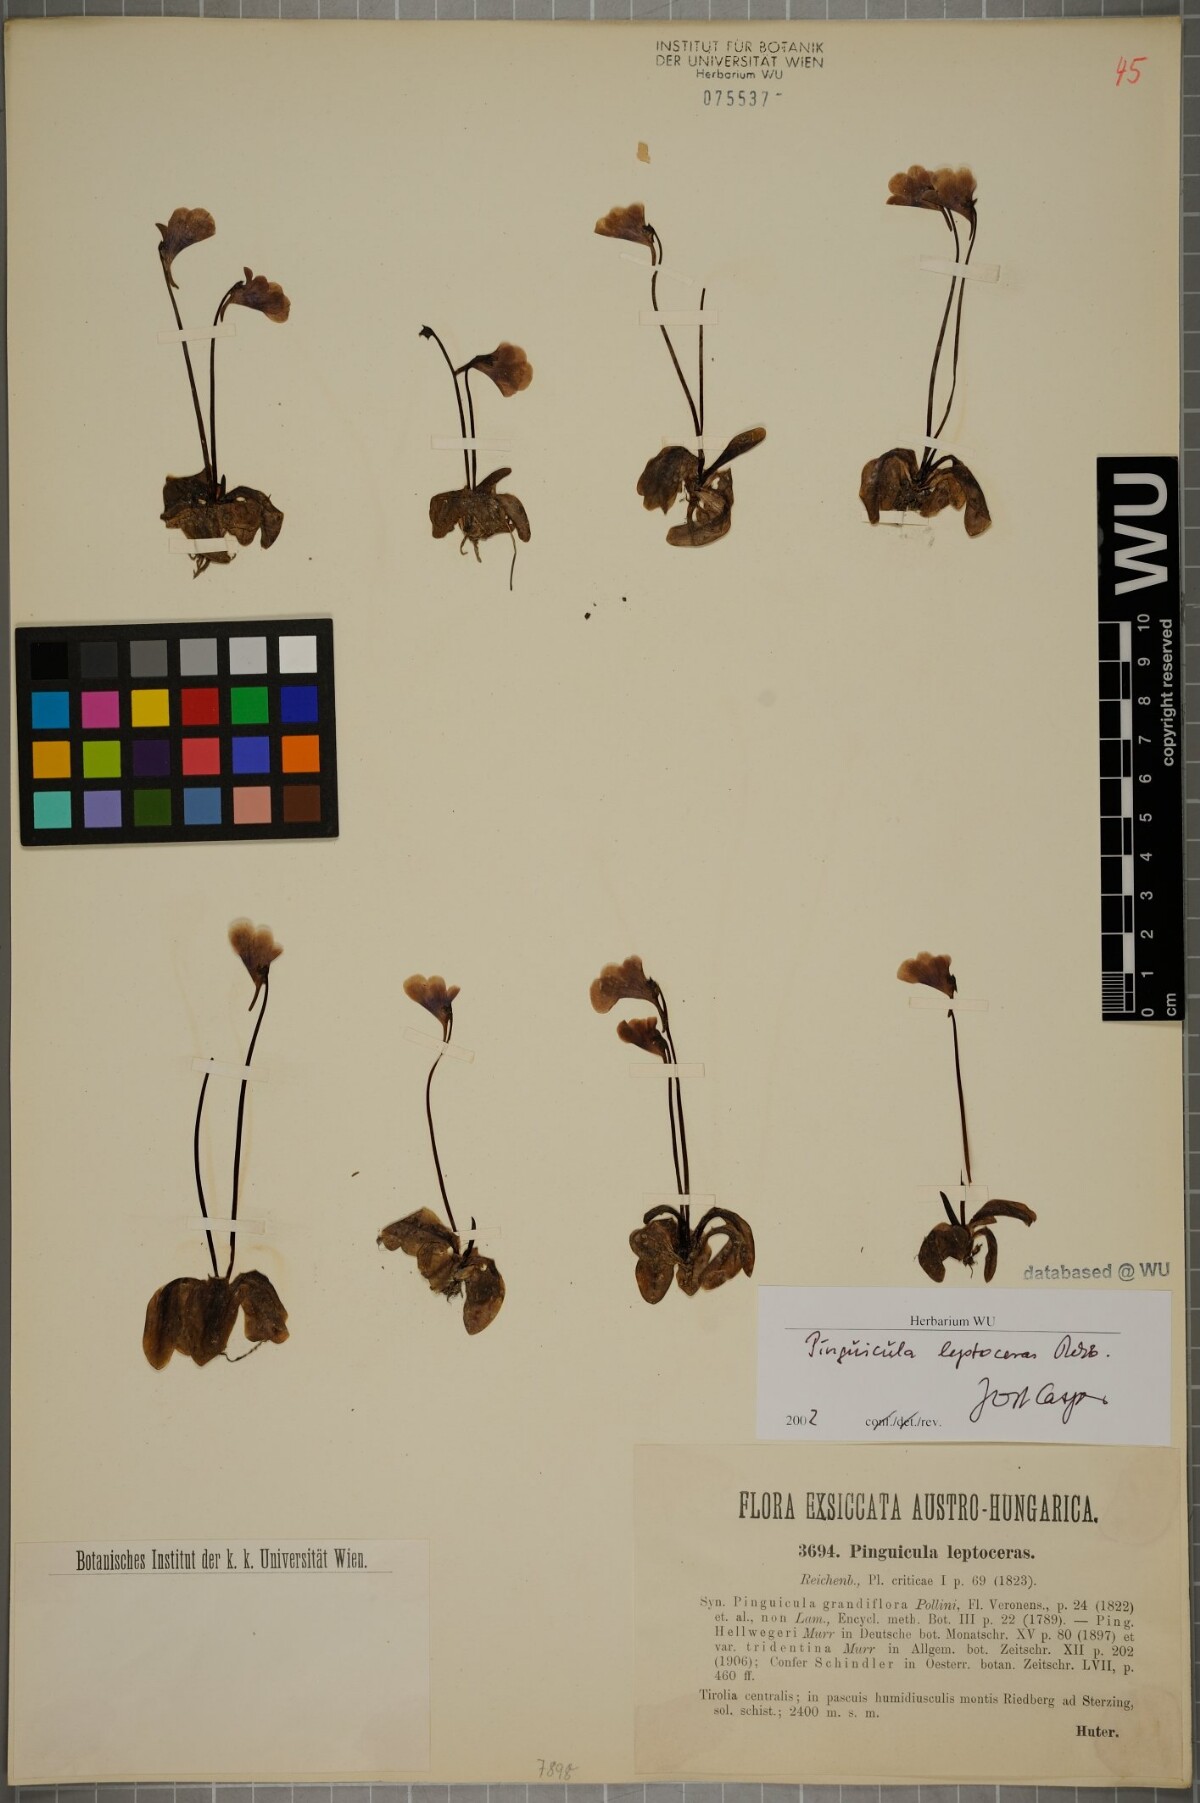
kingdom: Plantae
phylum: Tracheophyta
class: Magnoliopsida
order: Lamiales
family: Lentibulariaceae
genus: Pinguicula
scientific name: Pinguicula leptoceras
